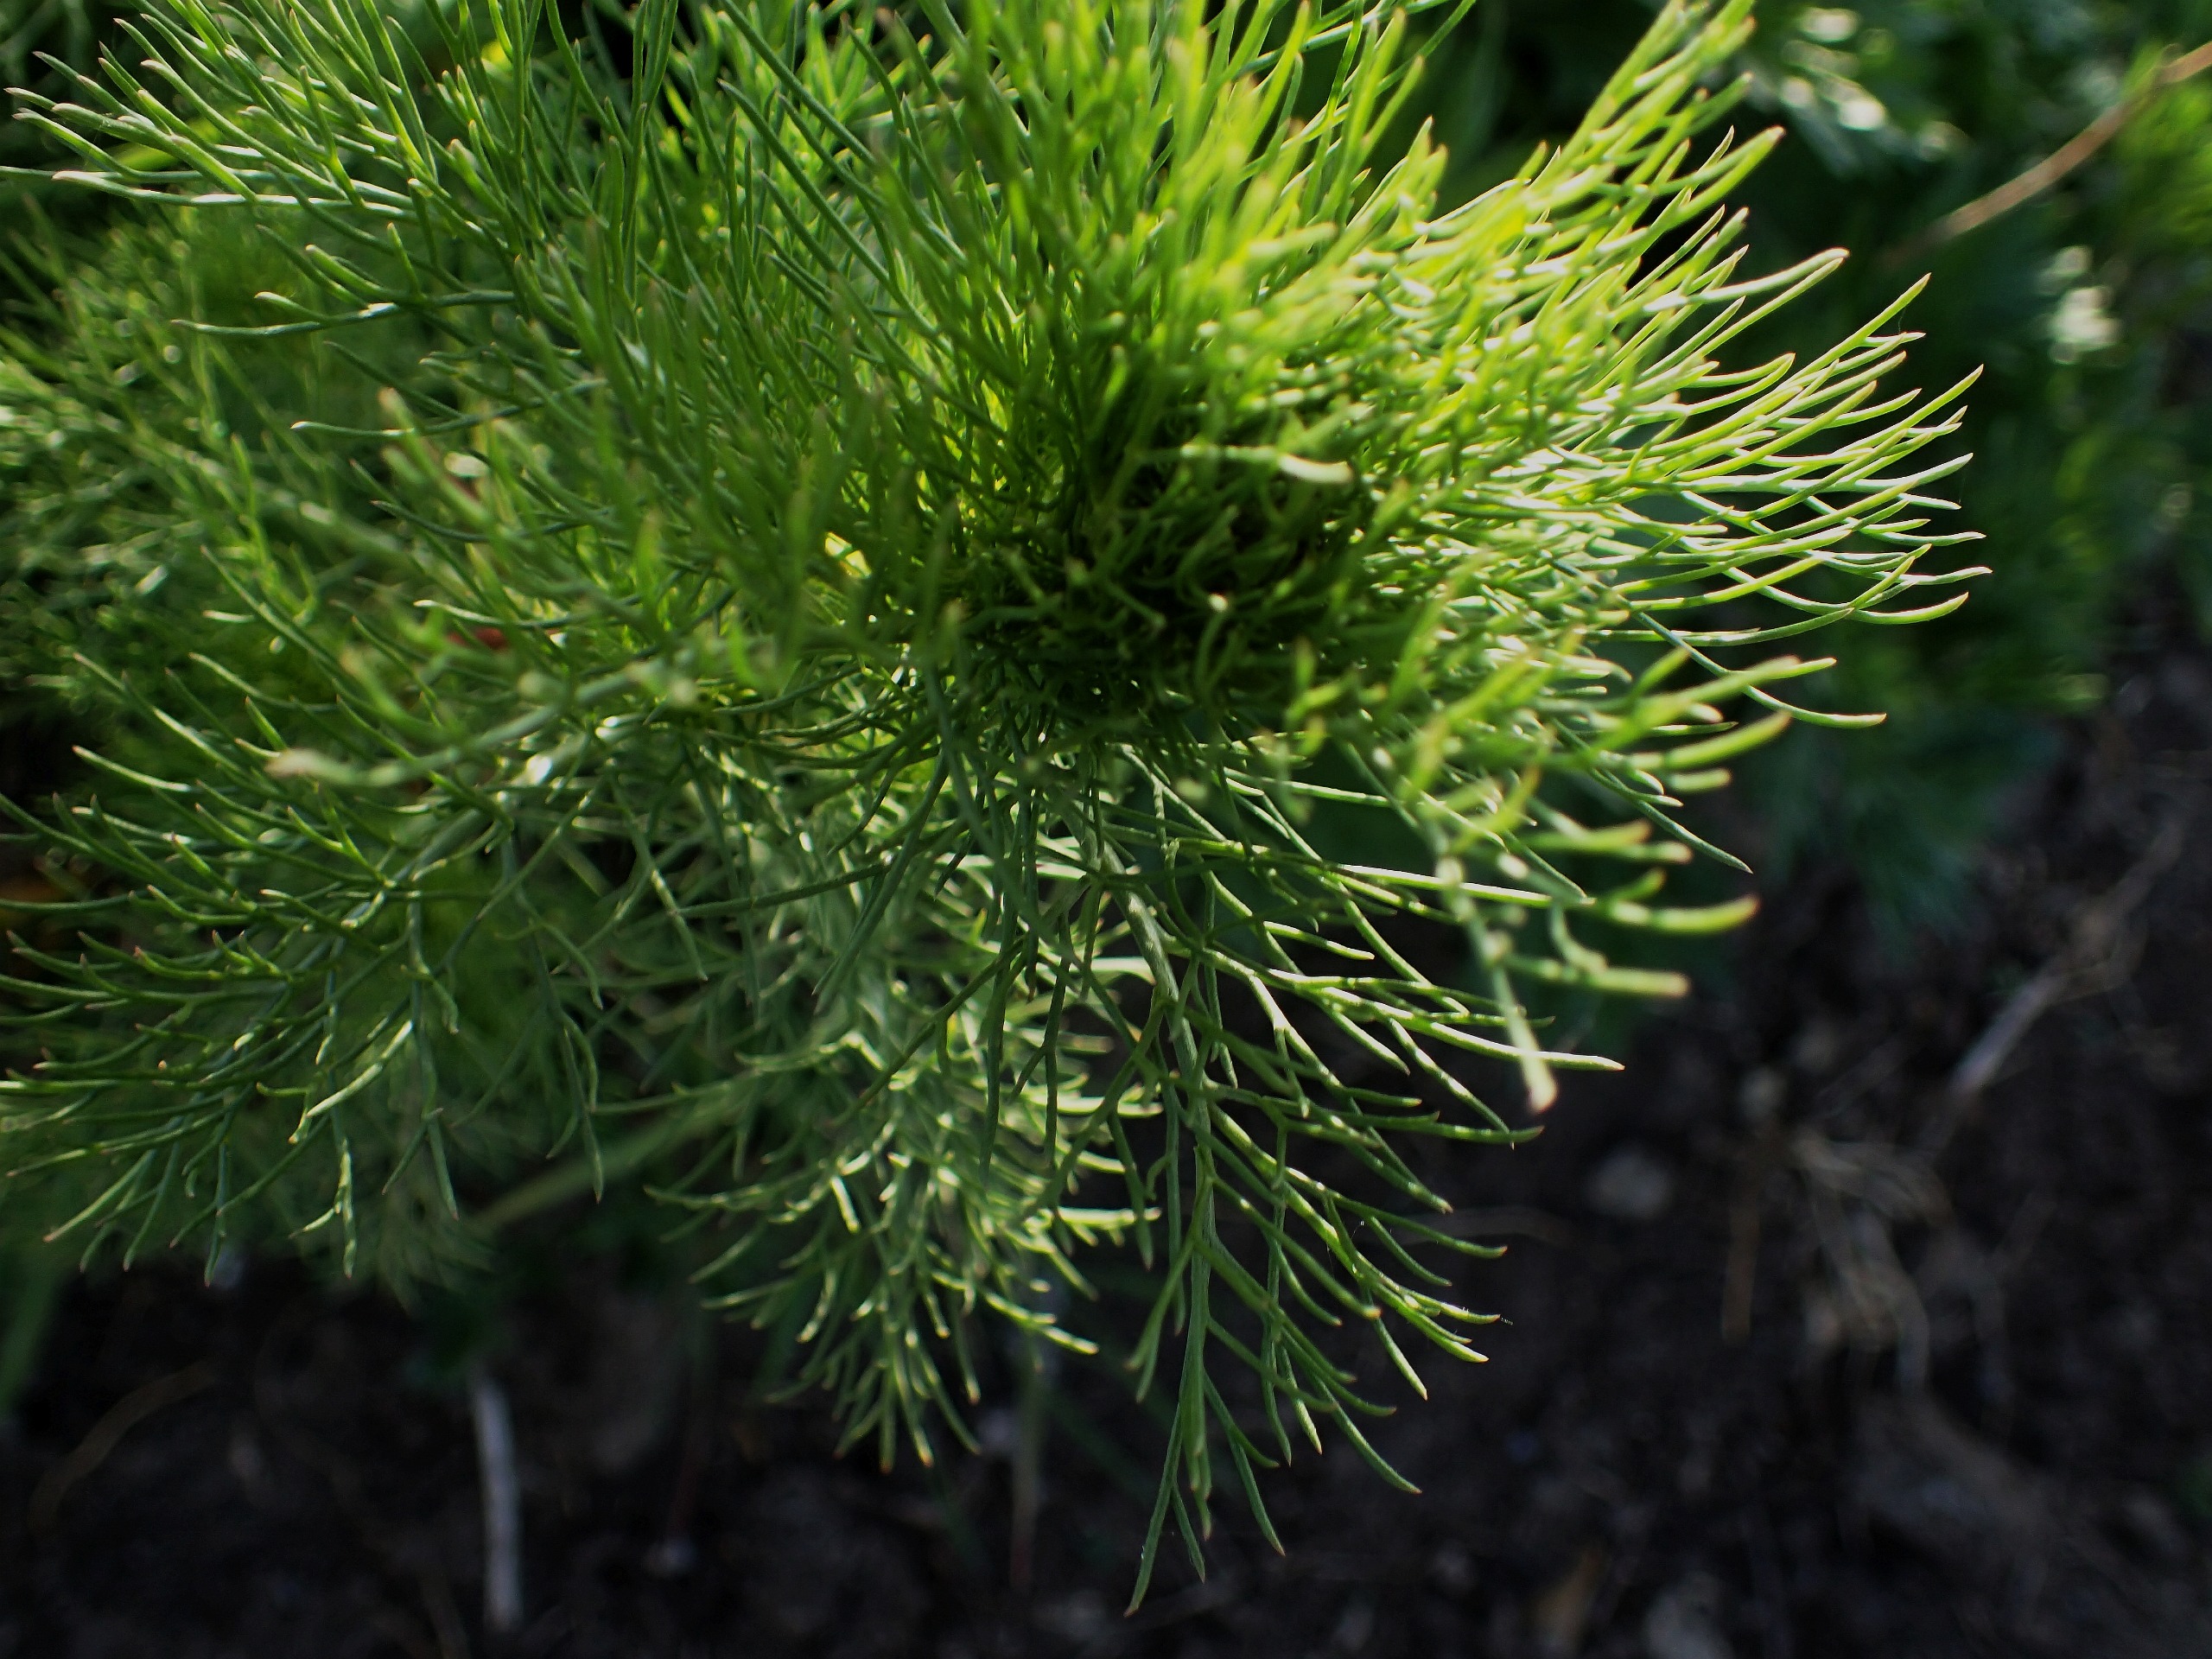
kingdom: Plantae
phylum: Tracheophyta
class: Magnoliopsida
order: Asterales
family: Asteraceae
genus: Tripleurospermum
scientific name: Tripleurospermum inodorum
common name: Lugtløs kamille
